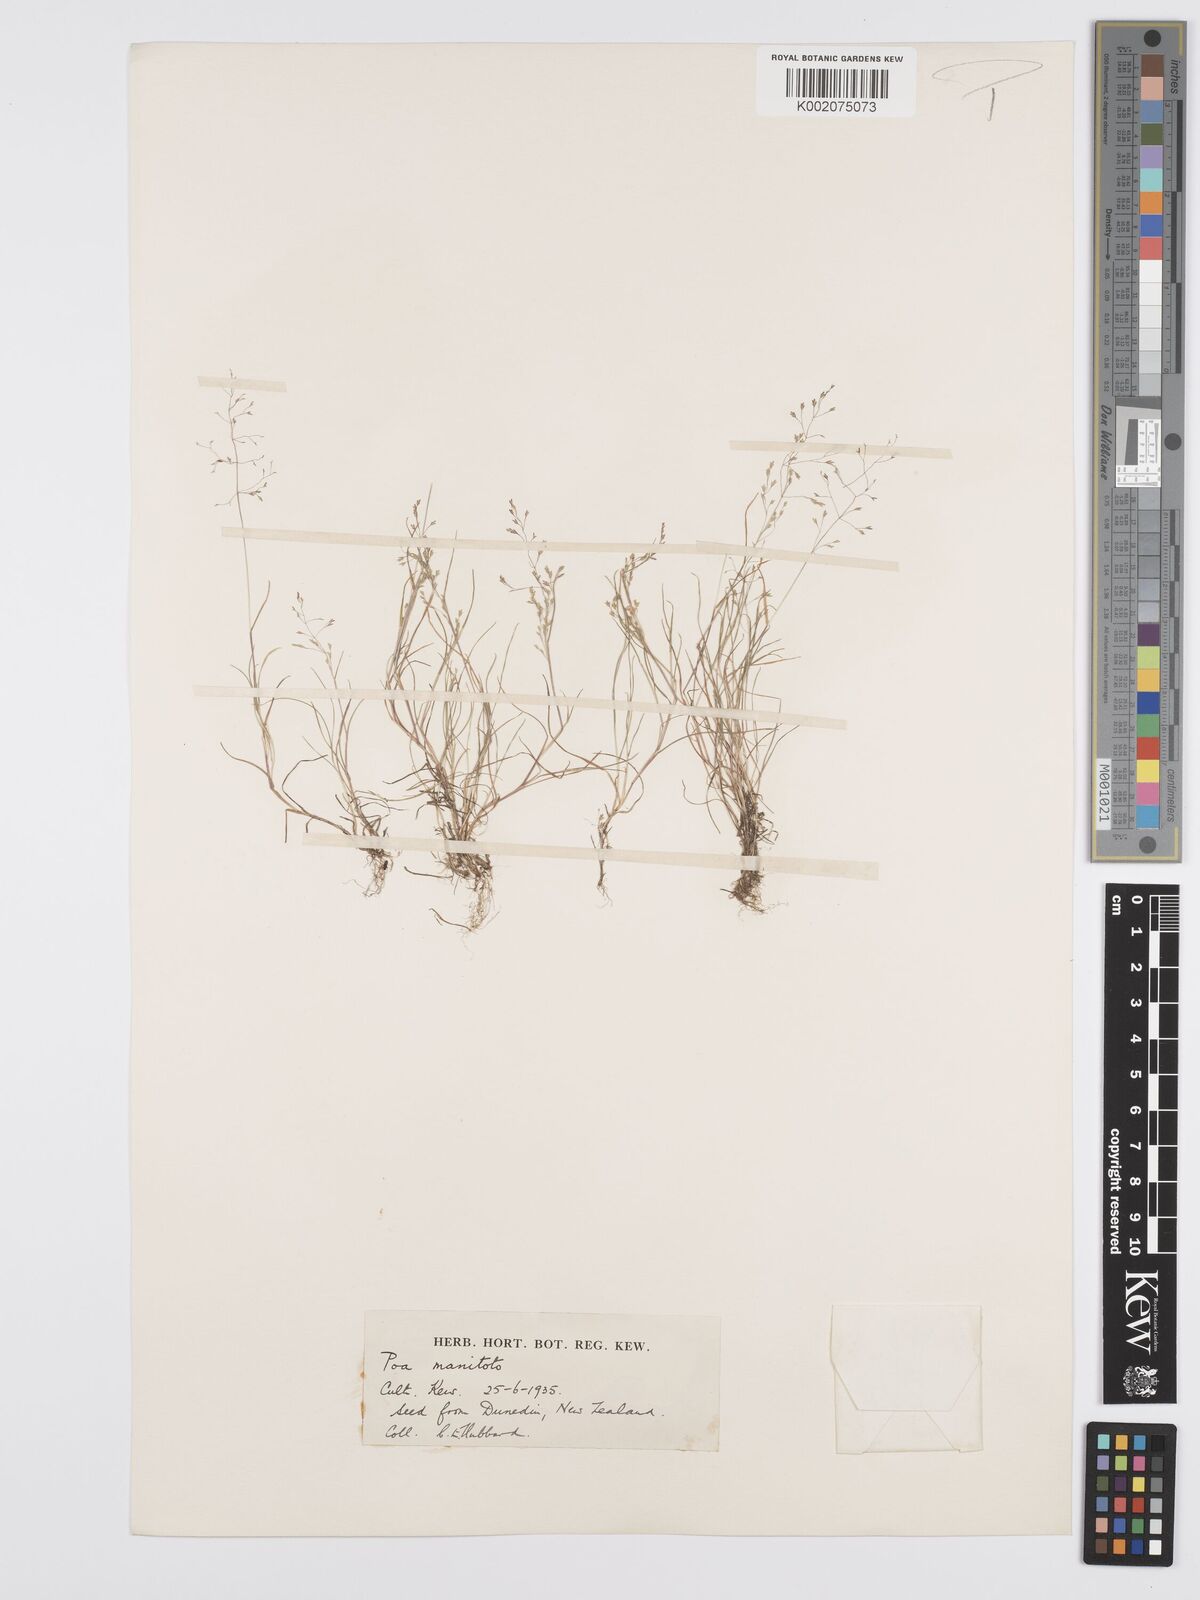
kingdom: Plantae
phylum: Tracheophyta
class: Liliopsida
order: Poales
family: Poaceae
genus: Poa
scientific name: Poa breviglumis
